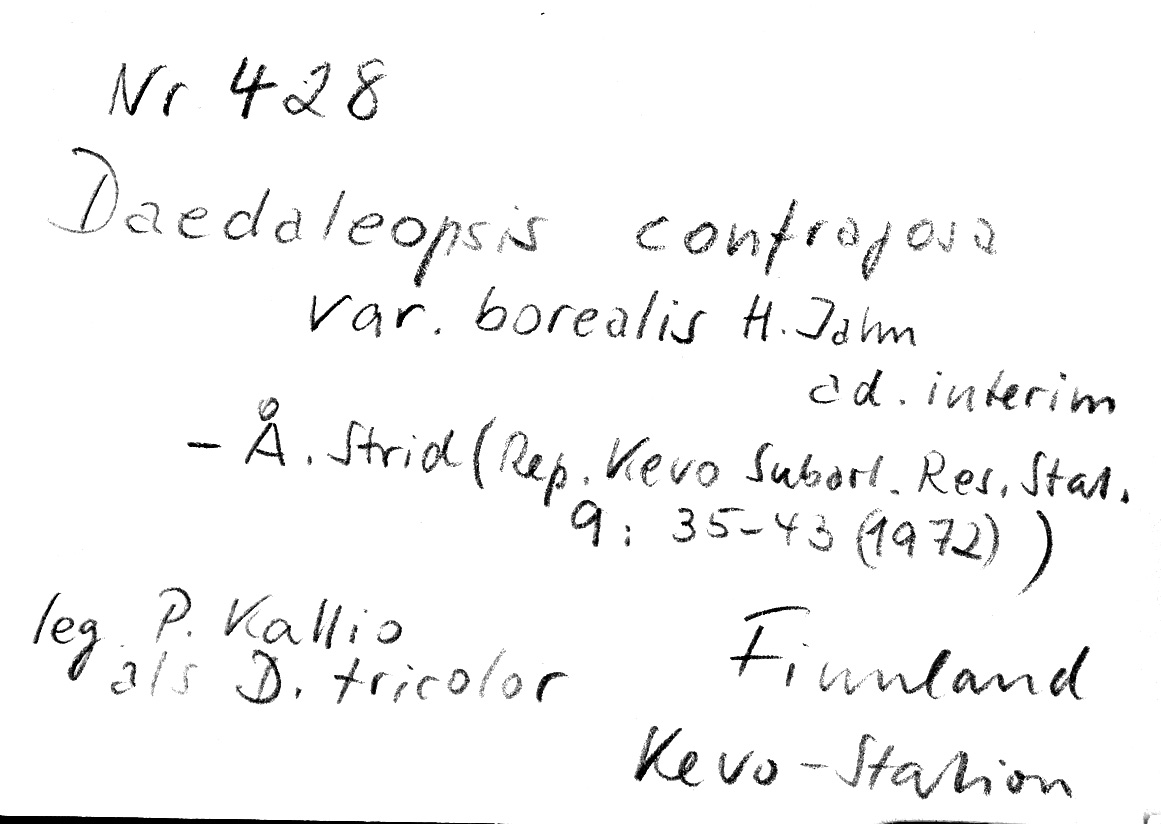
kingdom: Fungi
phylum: Basidiomycota
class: Agaricomycetes
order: Polyporales
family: Polyporaceae
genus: Daedaleopsis
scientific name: Daedaleopsis confragosa
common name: Blushing bracket
